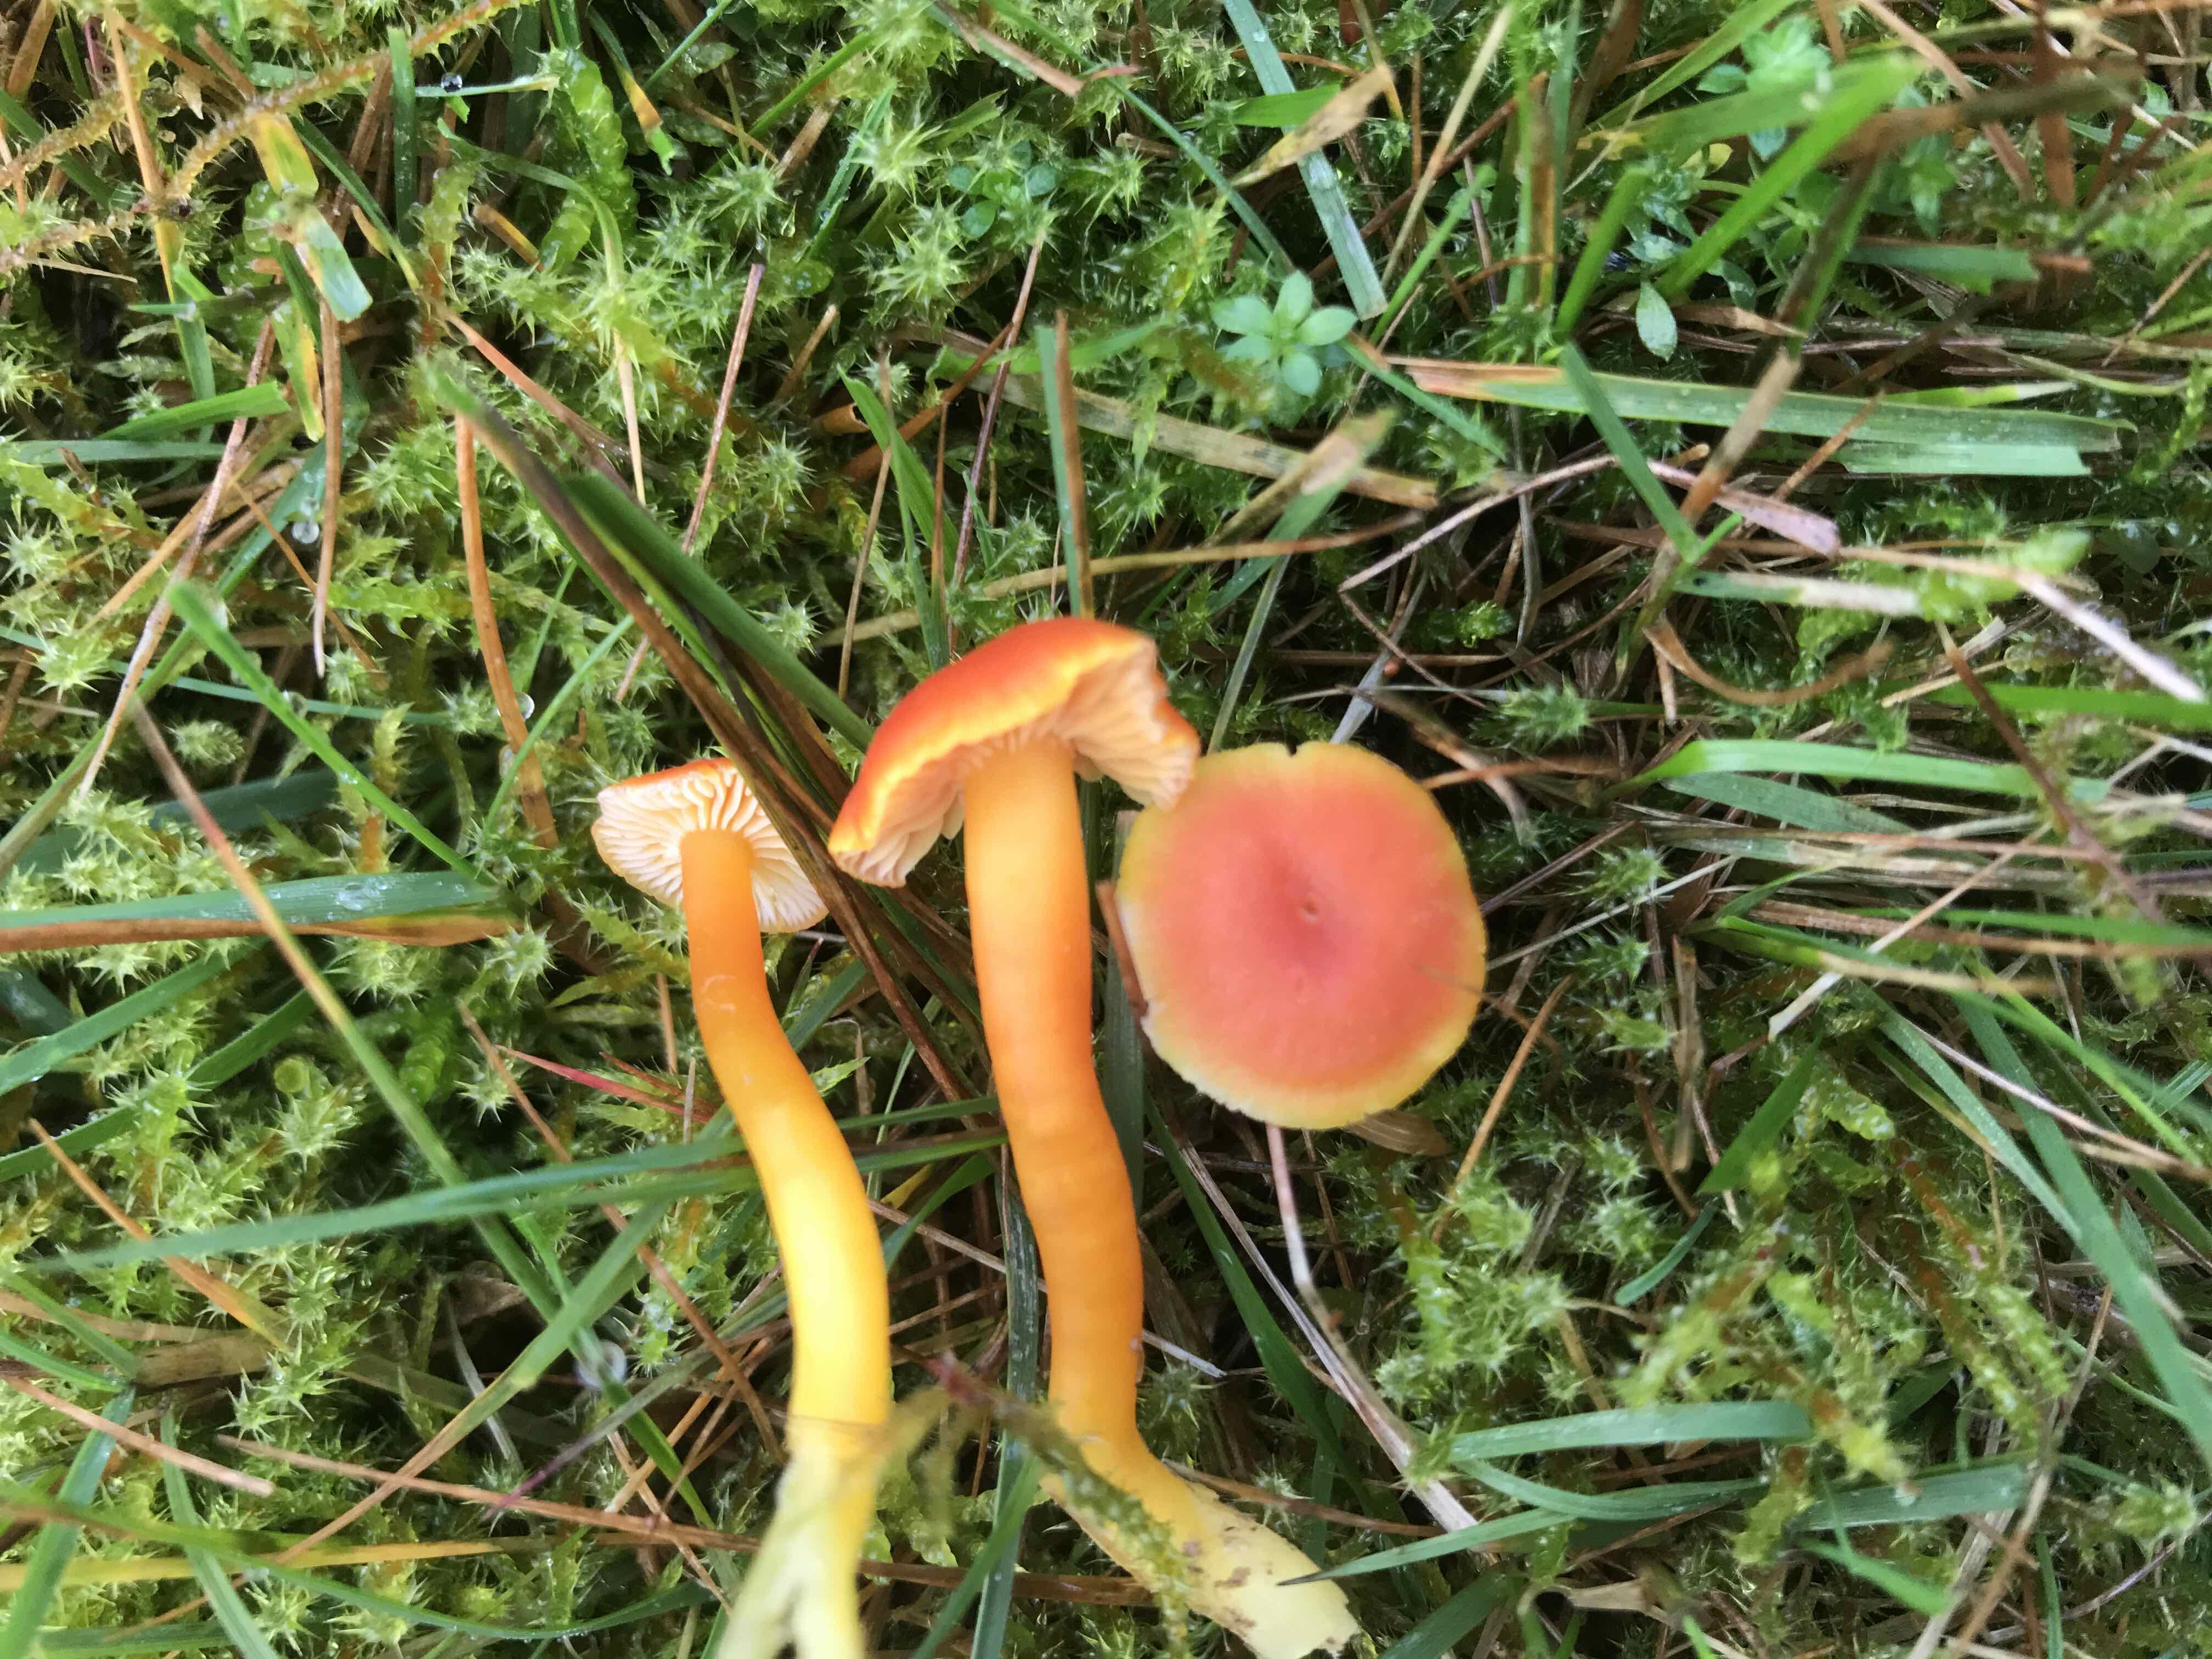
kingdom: Fungi
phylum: Basidiomycota
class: Agaricomycetes
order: Agaricales
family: Hygrophoraceae
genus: Hygrocybe
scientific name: Hygrocybe miniata
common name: mønje-vokshat
